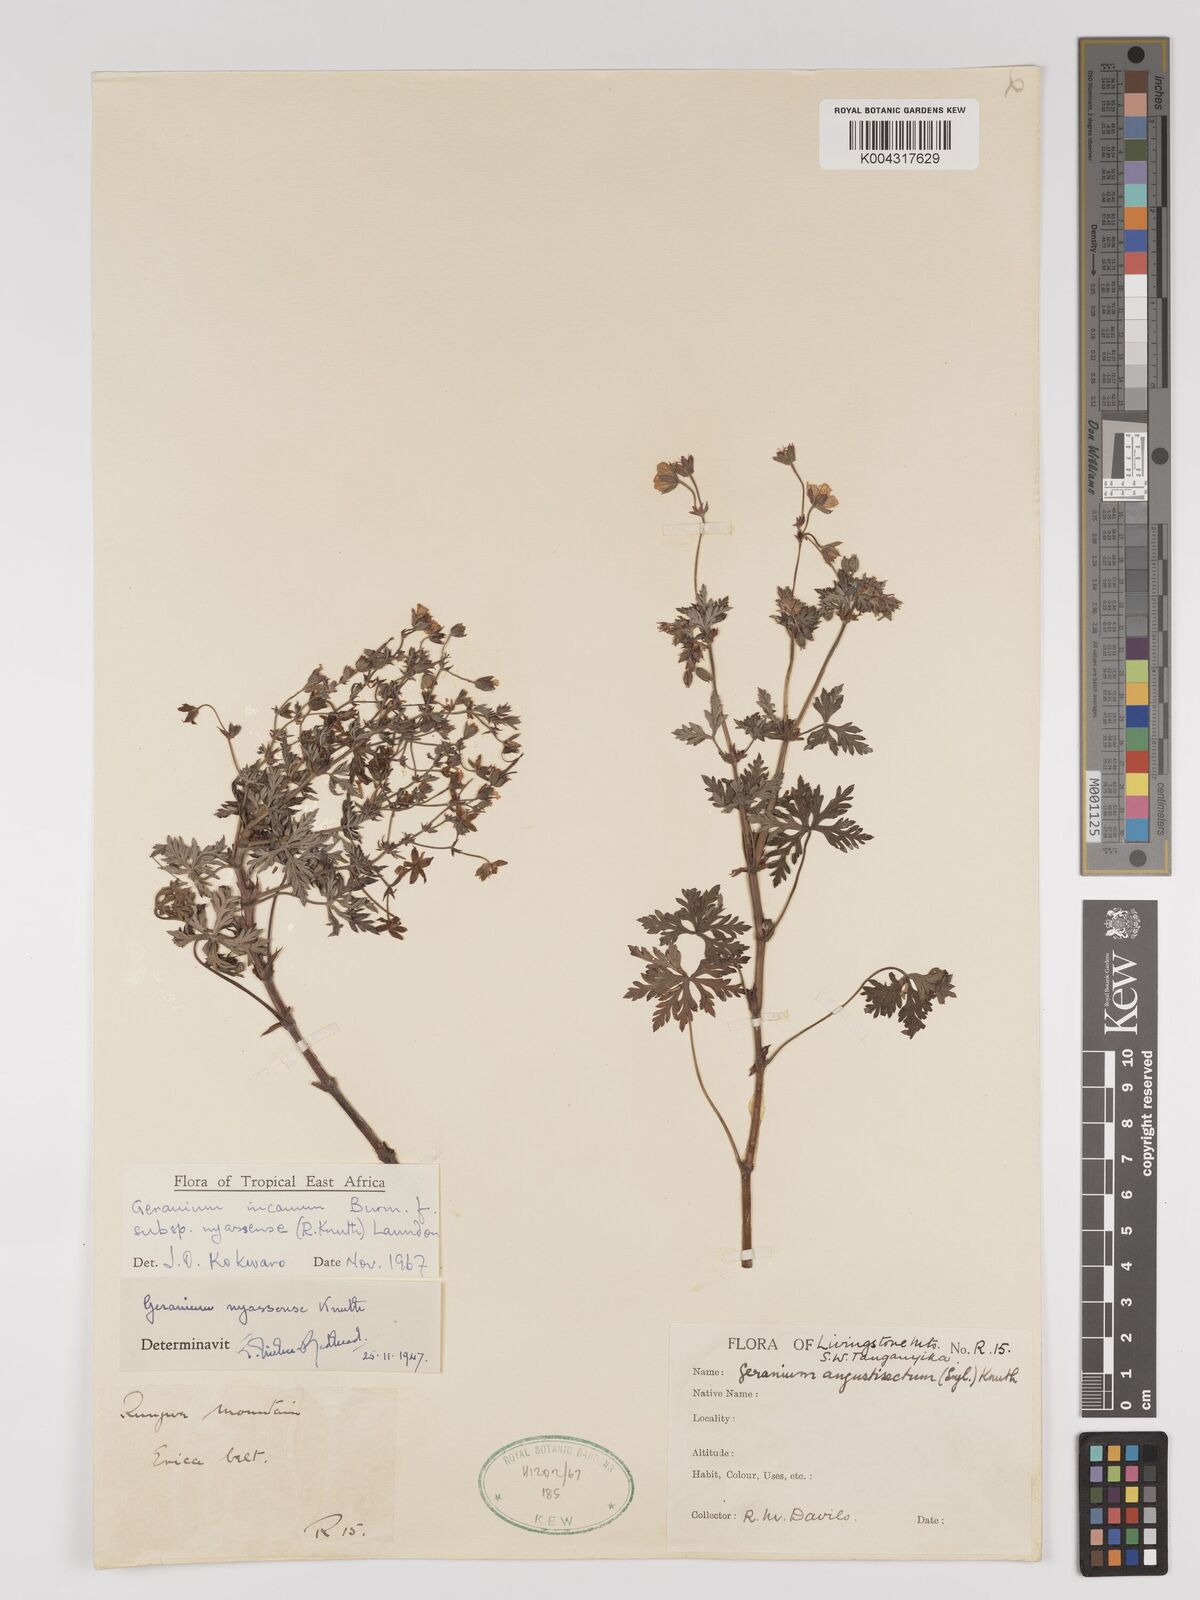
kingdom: Plantae
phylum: Tracheophyta
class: Magnoliopsida
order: Geraniales
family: Geraniaceae
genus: Geranium
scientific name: Geranium incanum
